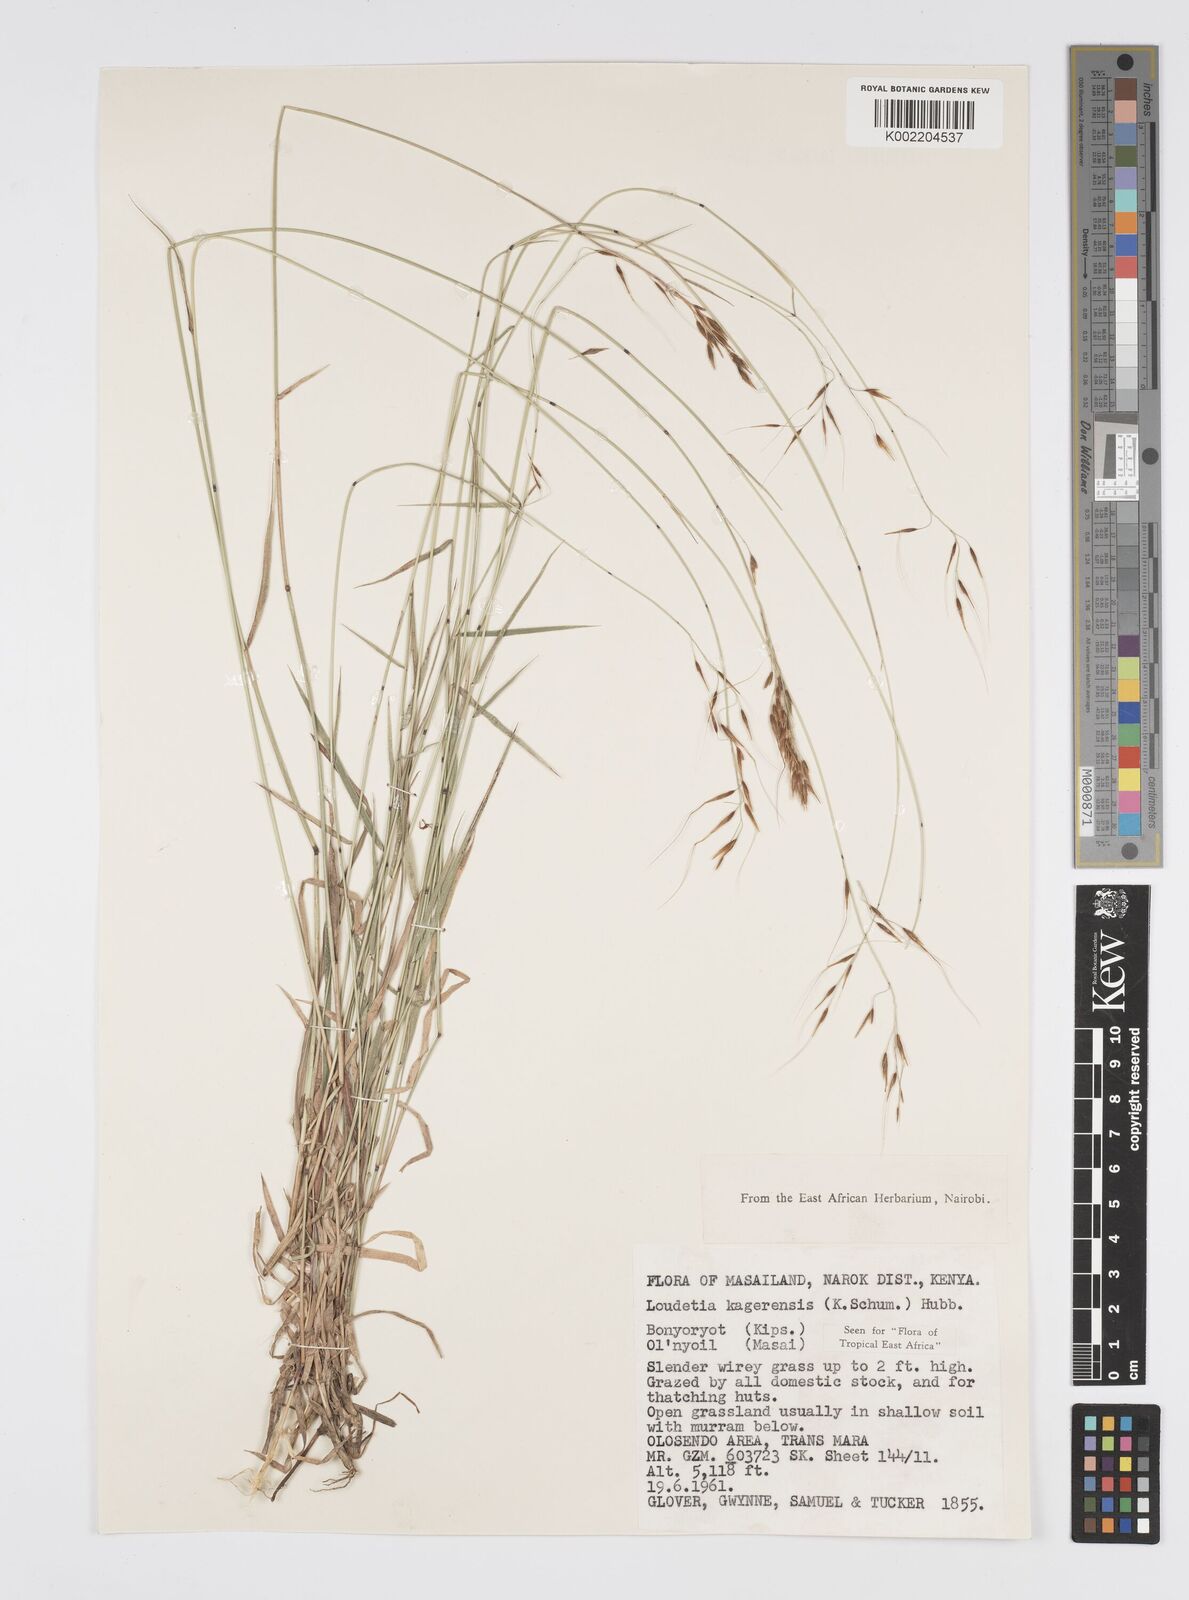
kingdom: Plantae
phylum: Tracheophyta
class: Liliopsida
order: Poales
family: Poaceae
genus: Loudetia
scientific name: Loudetia kagerensis
